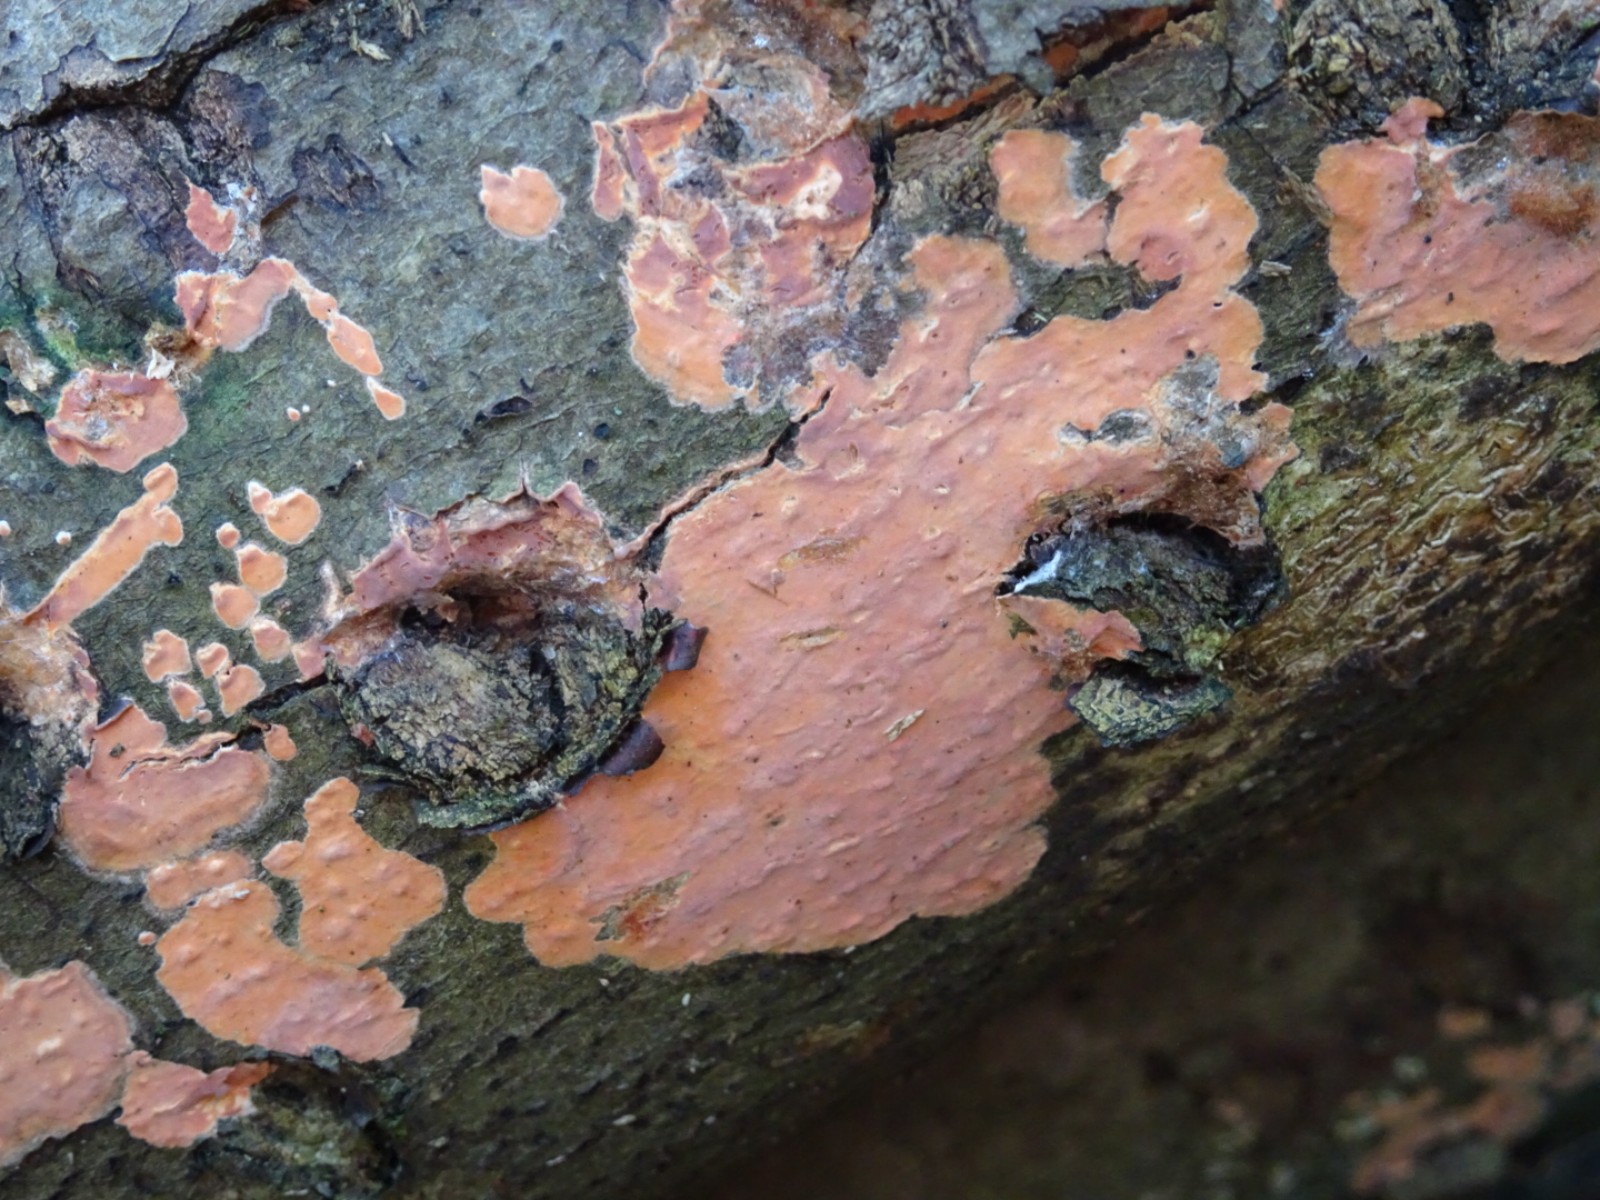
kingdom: Fungi
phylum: Basidiomycota
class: Agaricomycetes
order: Russulales
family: Peniophoraceae
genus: Peniophora
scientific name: Peniophora incarnata
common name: laksefarvet voksskind
